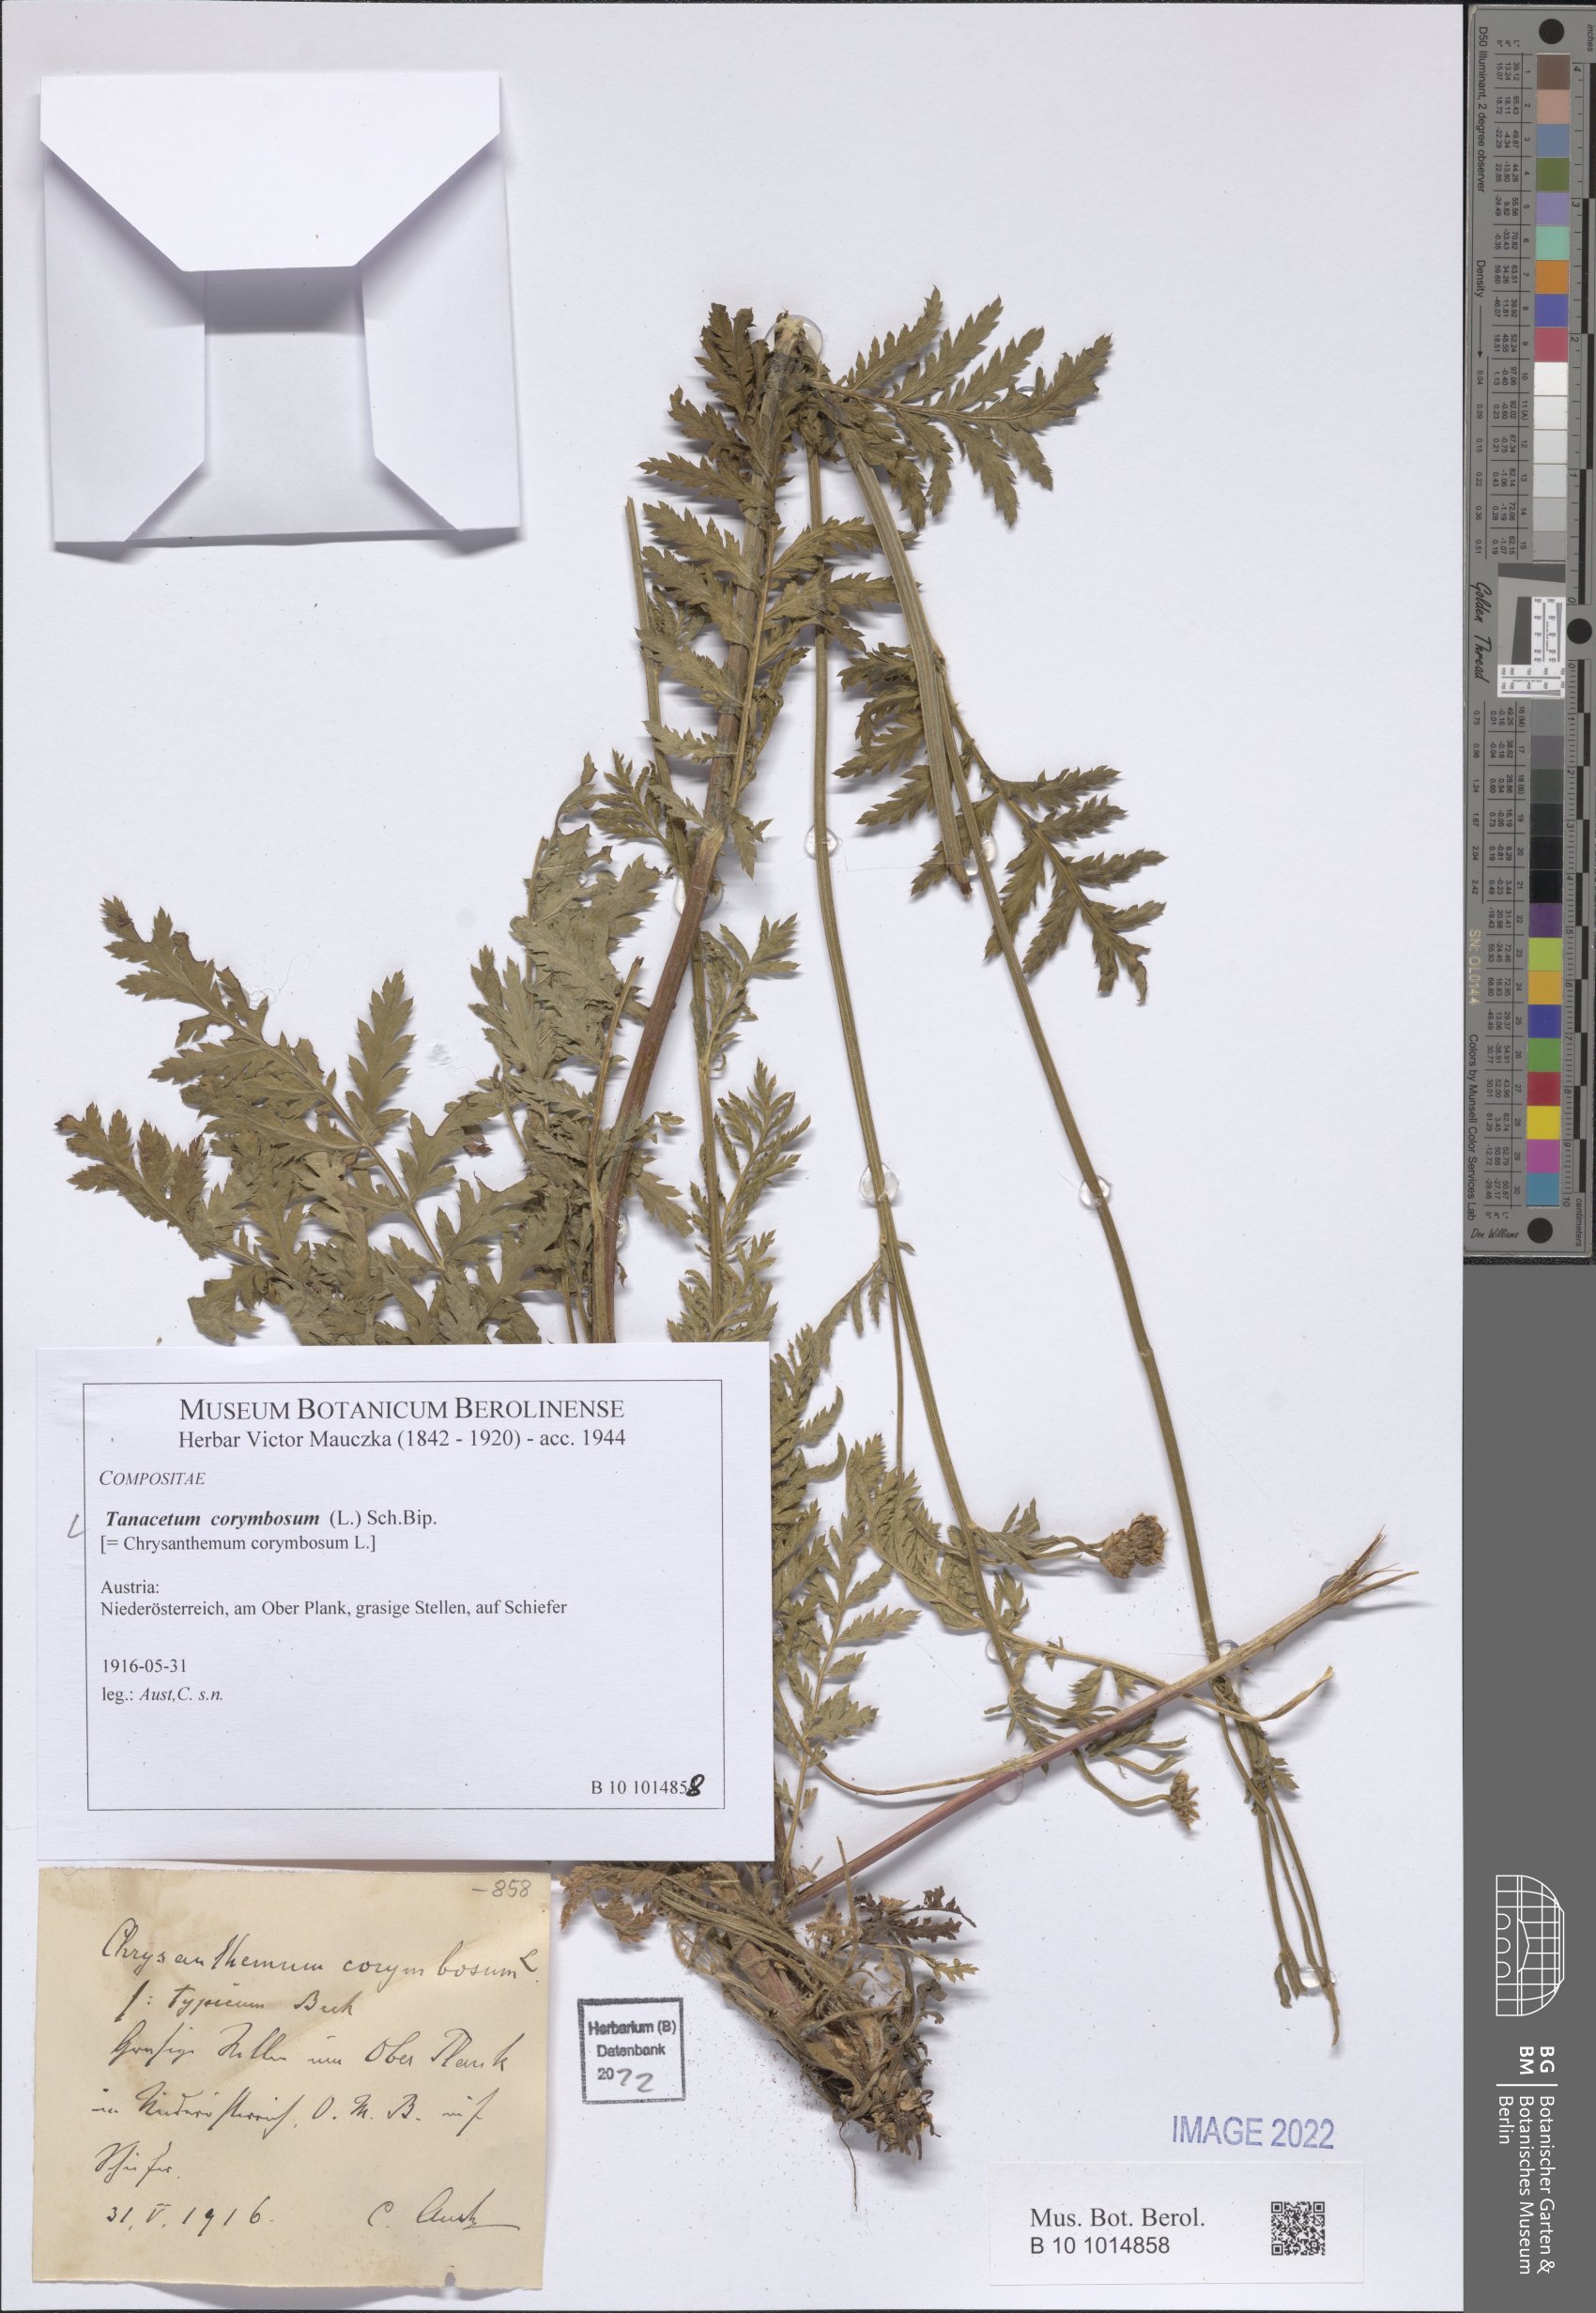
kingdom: Plantae
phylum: Tracheophyta
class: Magnoliopsida
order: Asterales
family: Asteraceae
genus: Tanacetum
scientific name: Tanacetum corymbosum
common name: Scentless feverfew
